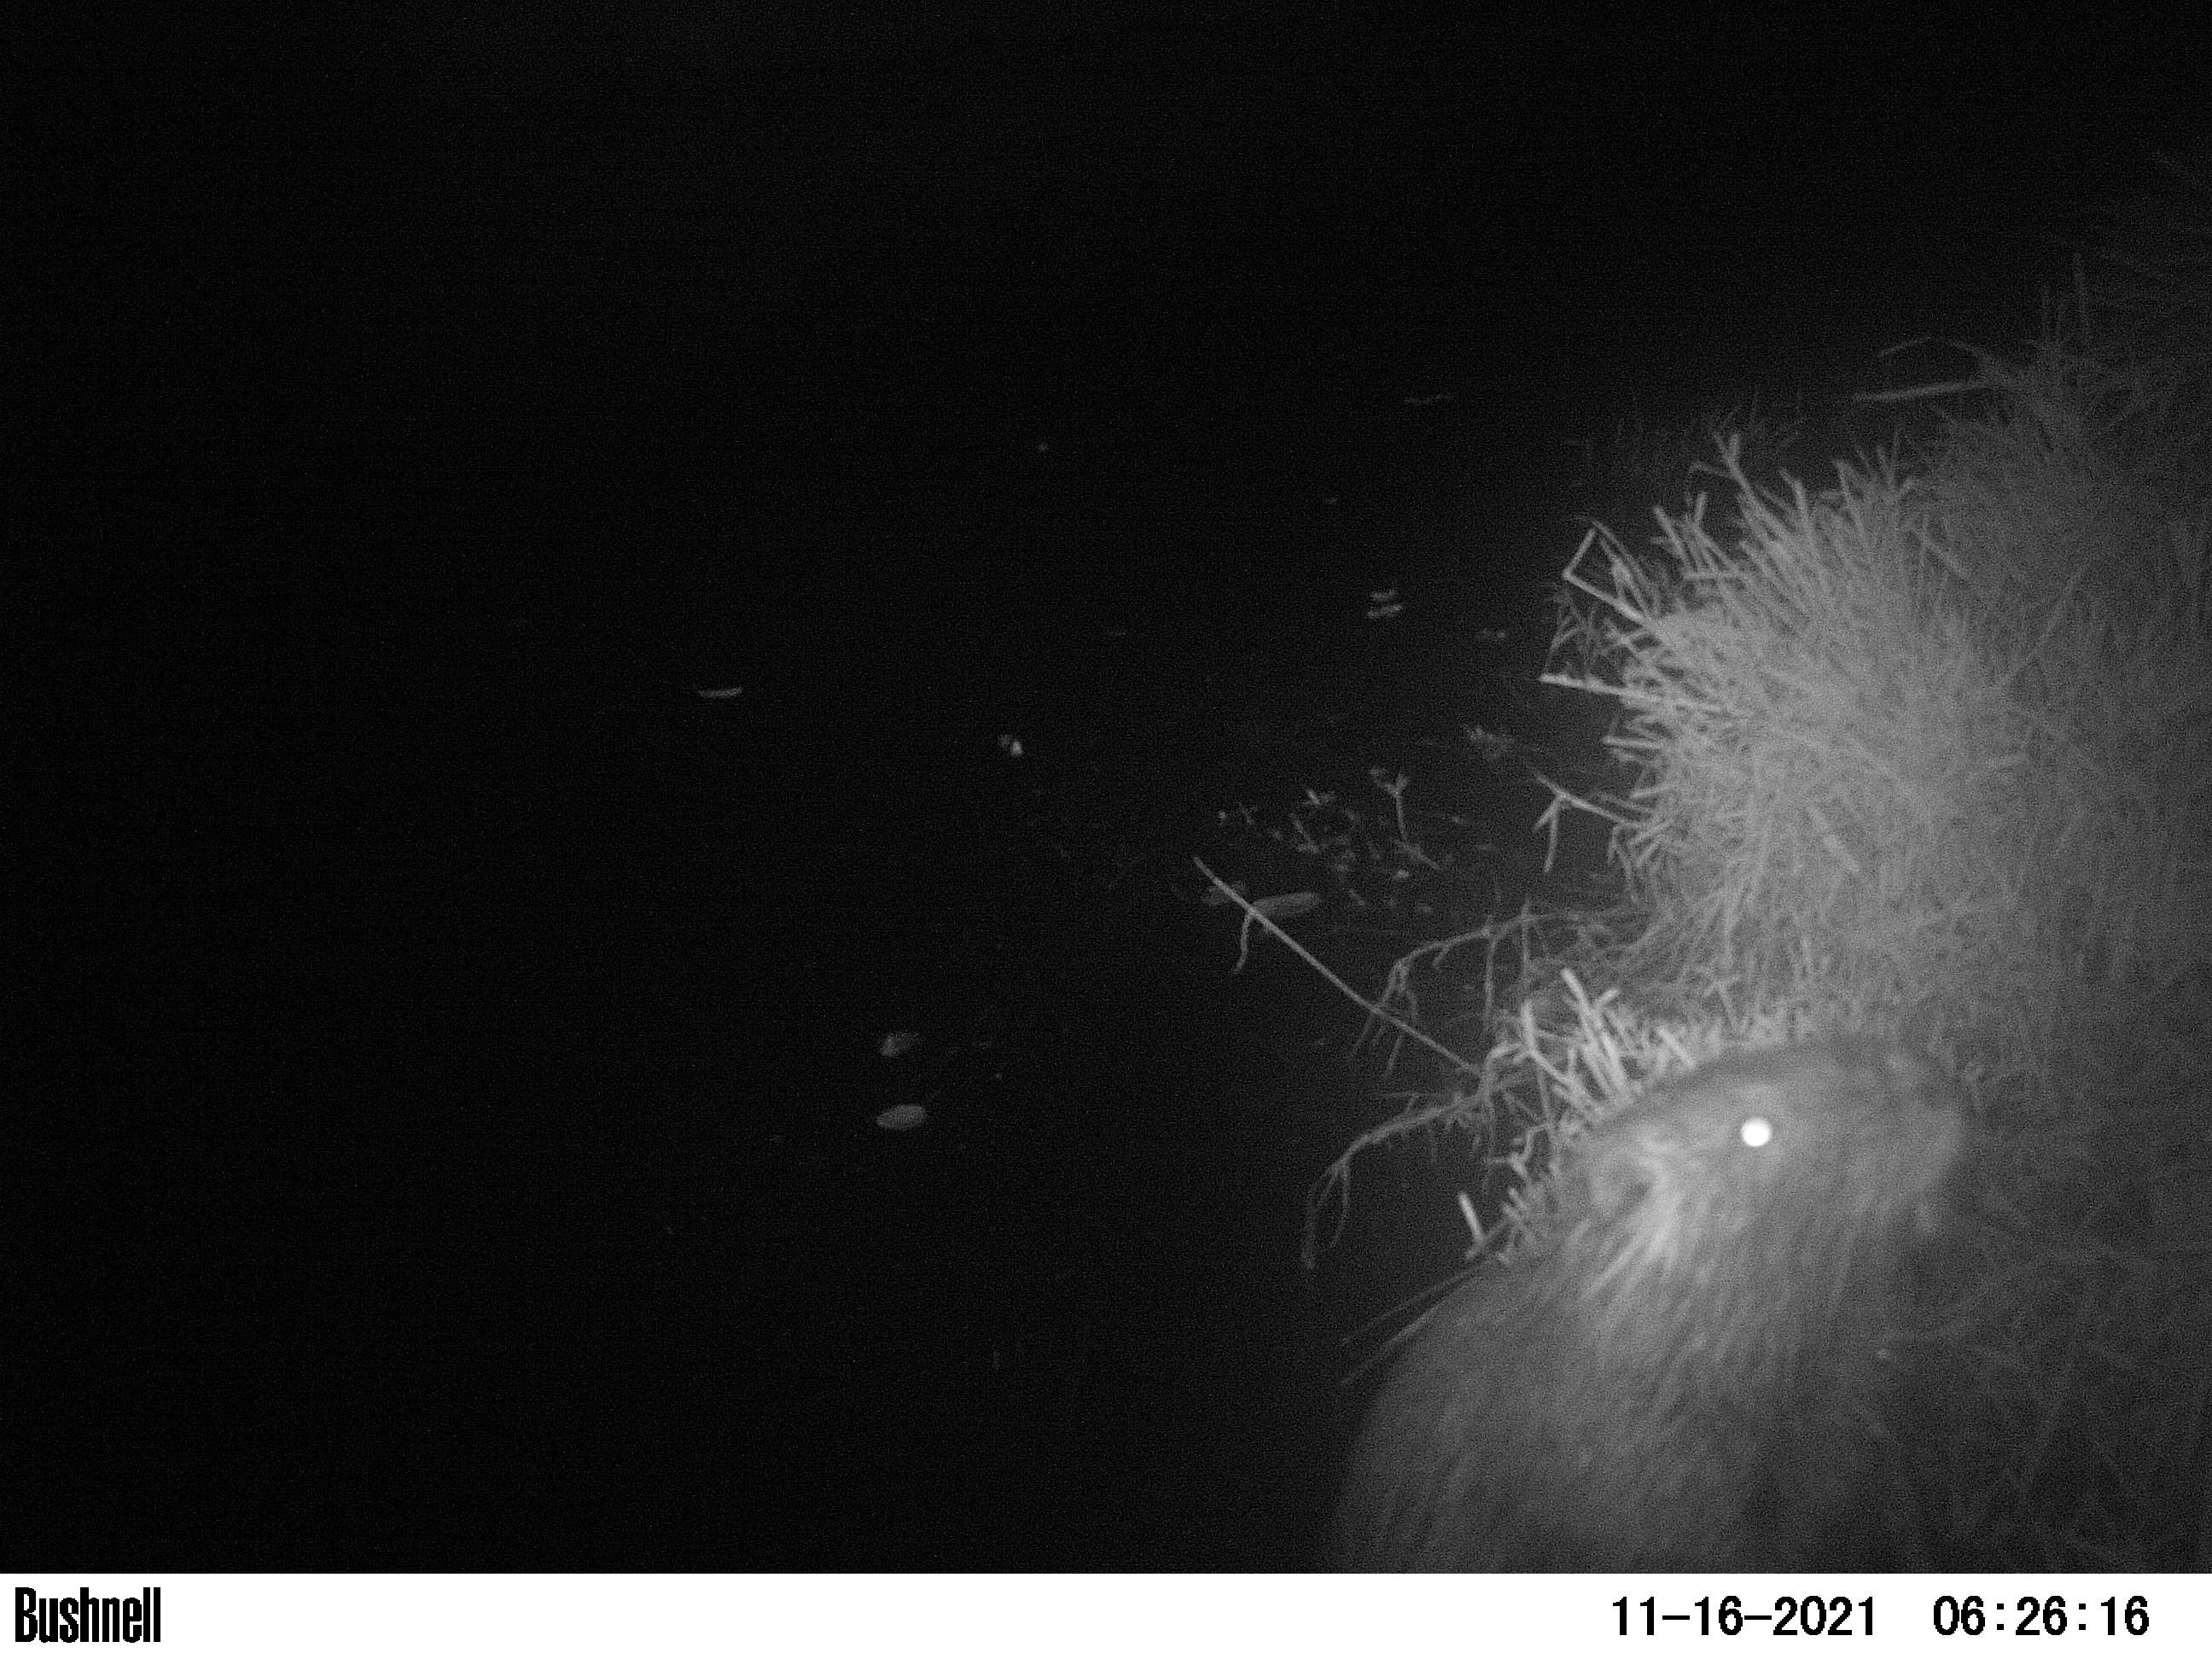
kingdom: Animalia
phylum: Chordata
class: Mammalia
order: Rodentia
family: Myocastoridae
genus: Myocastor
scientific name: Myocastor coypus
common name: Coypu
